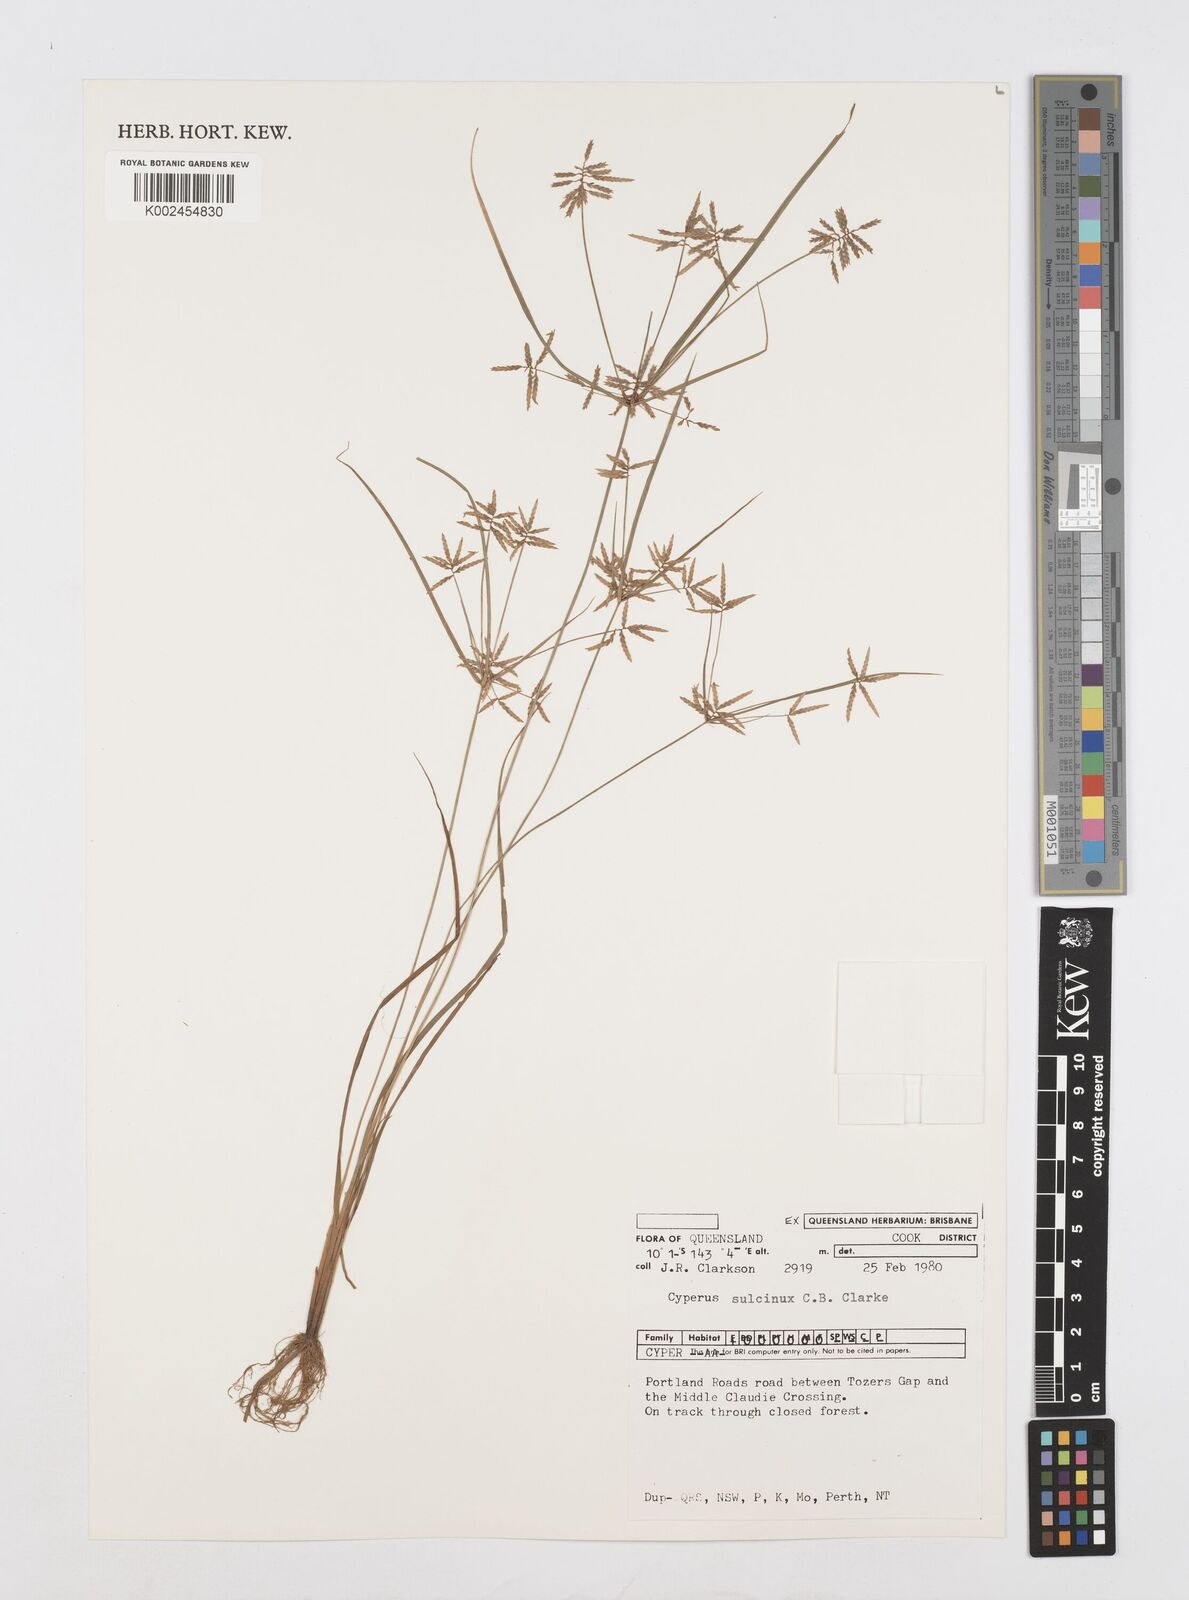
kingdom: Plantae
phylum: Tracheophyta
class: Liliopsida
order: Poales
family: Cyperaceae
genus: Cyperus
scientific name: Cyperus sulcinux
